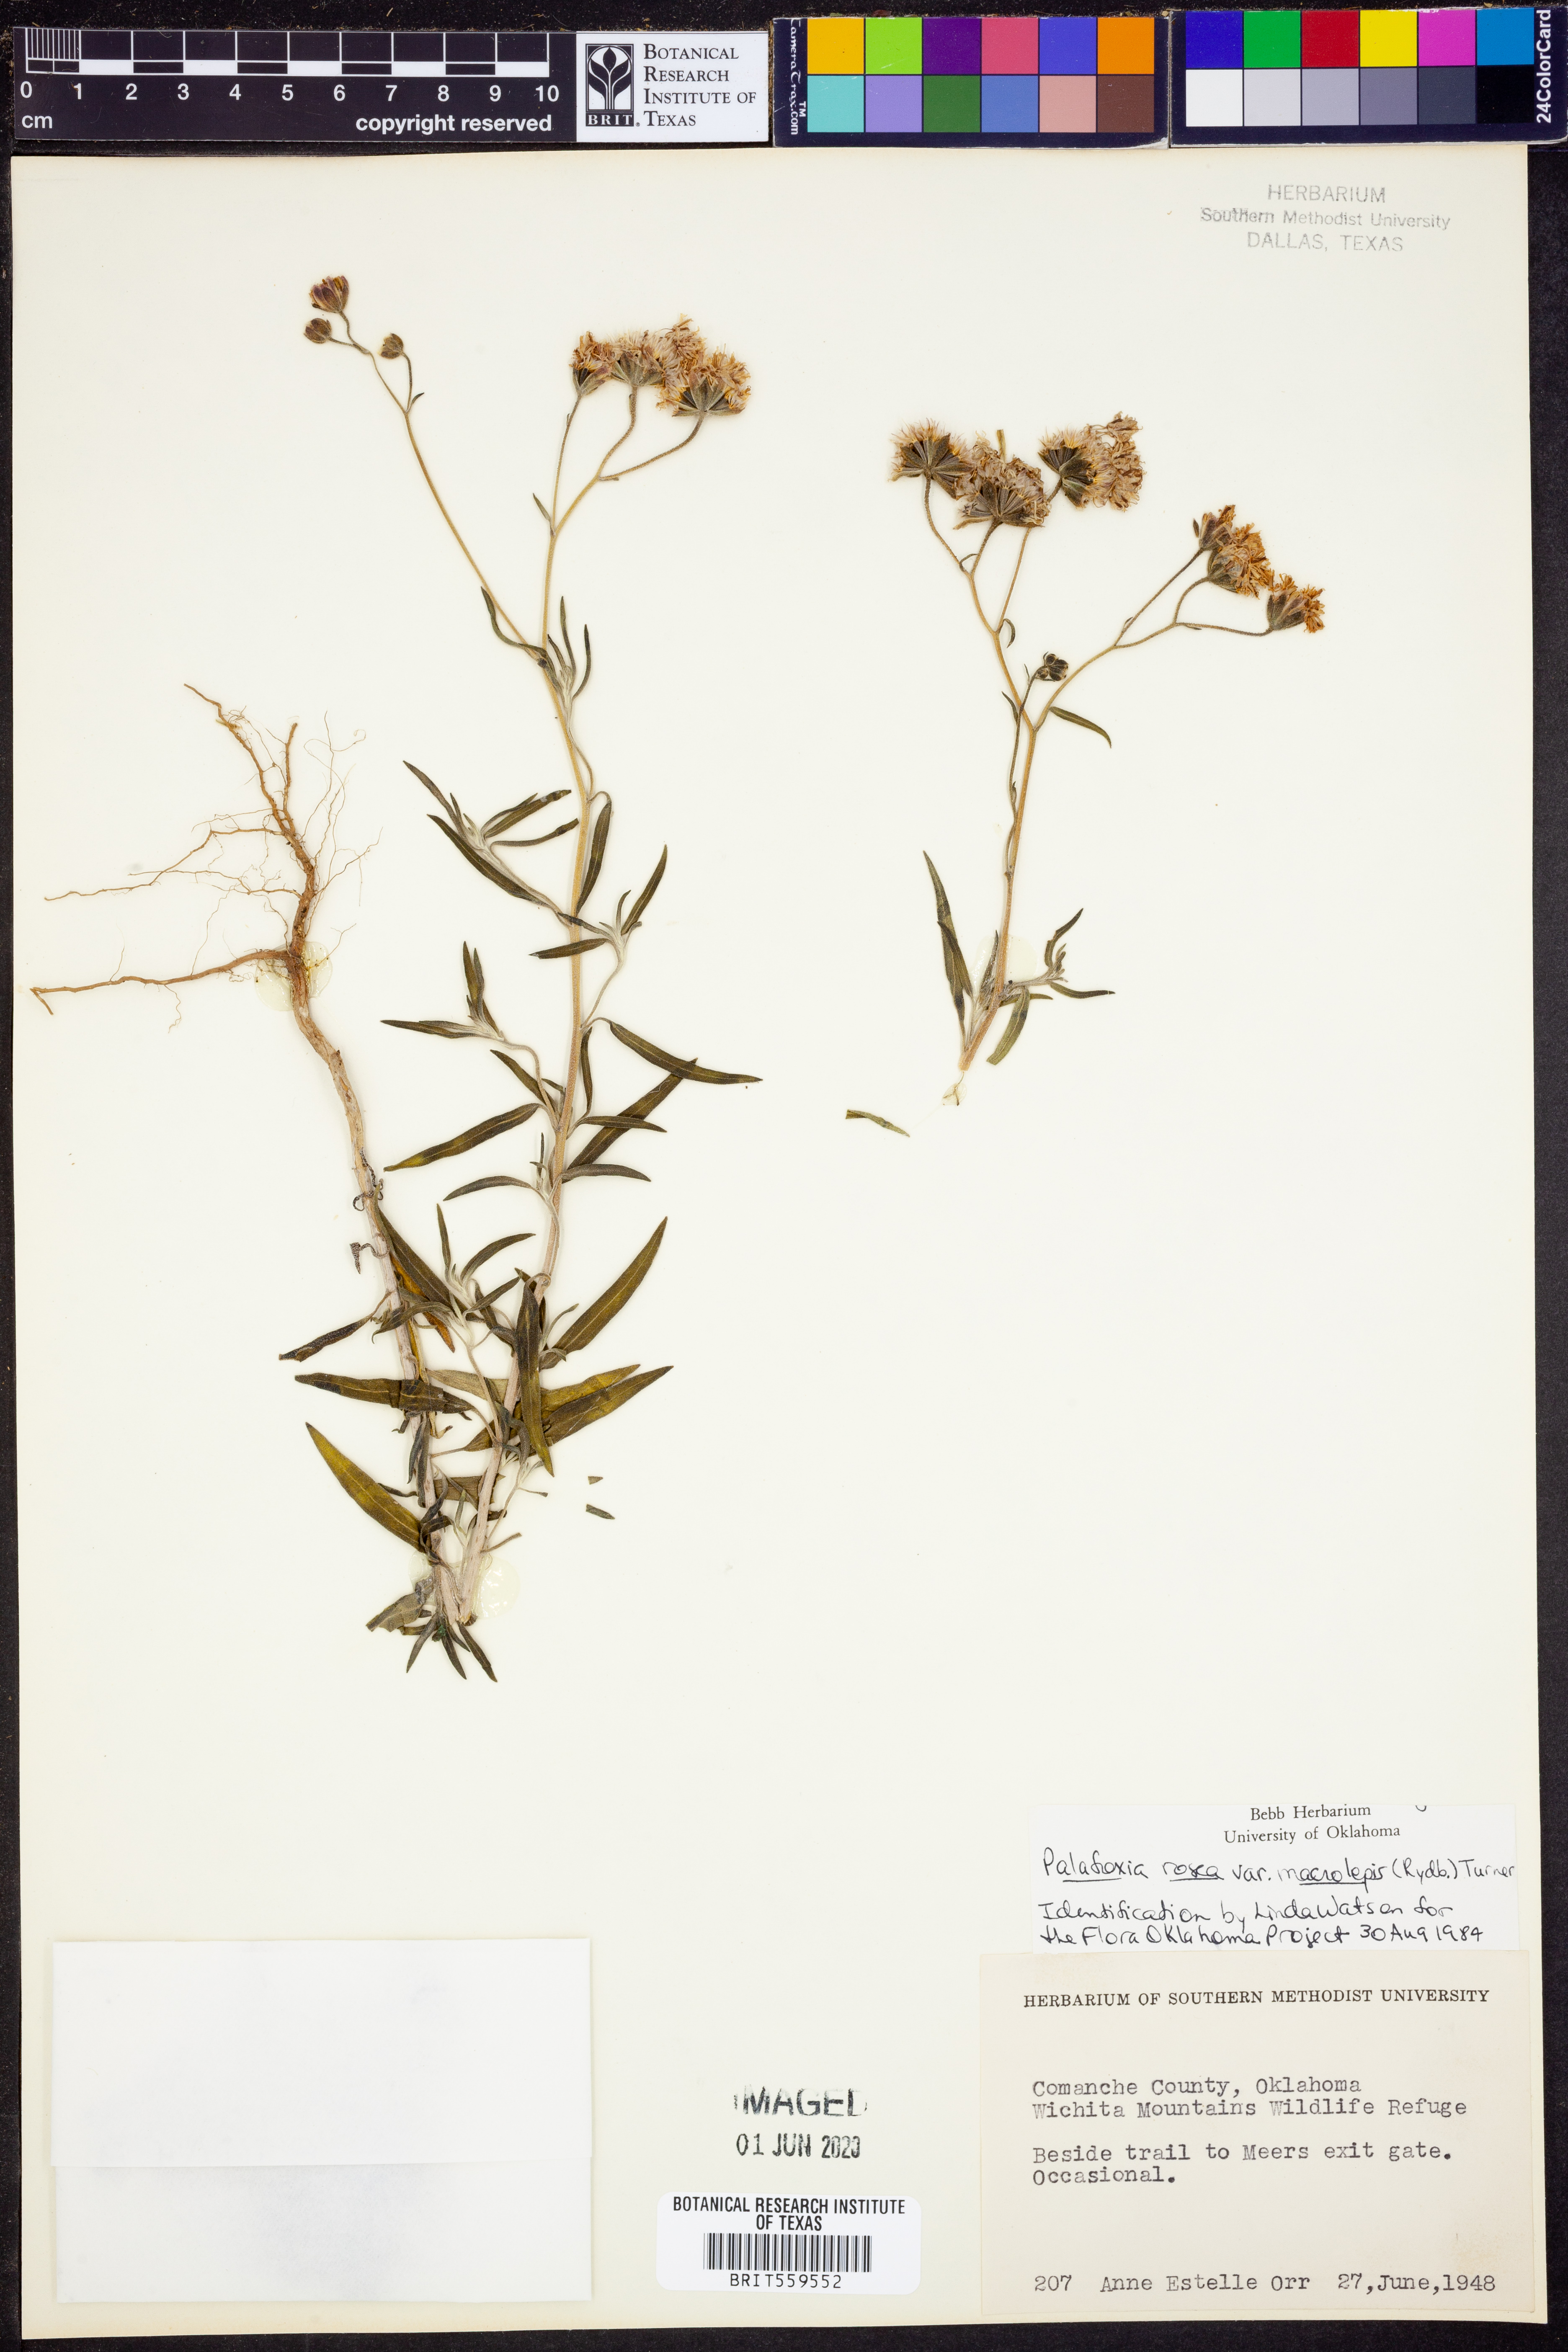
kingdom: Plantae
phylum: Tracheophyta
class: Magnoliopsida
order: Asterales
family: Asteraceae
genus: Palafoxia
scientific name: Palafoxia rosea
